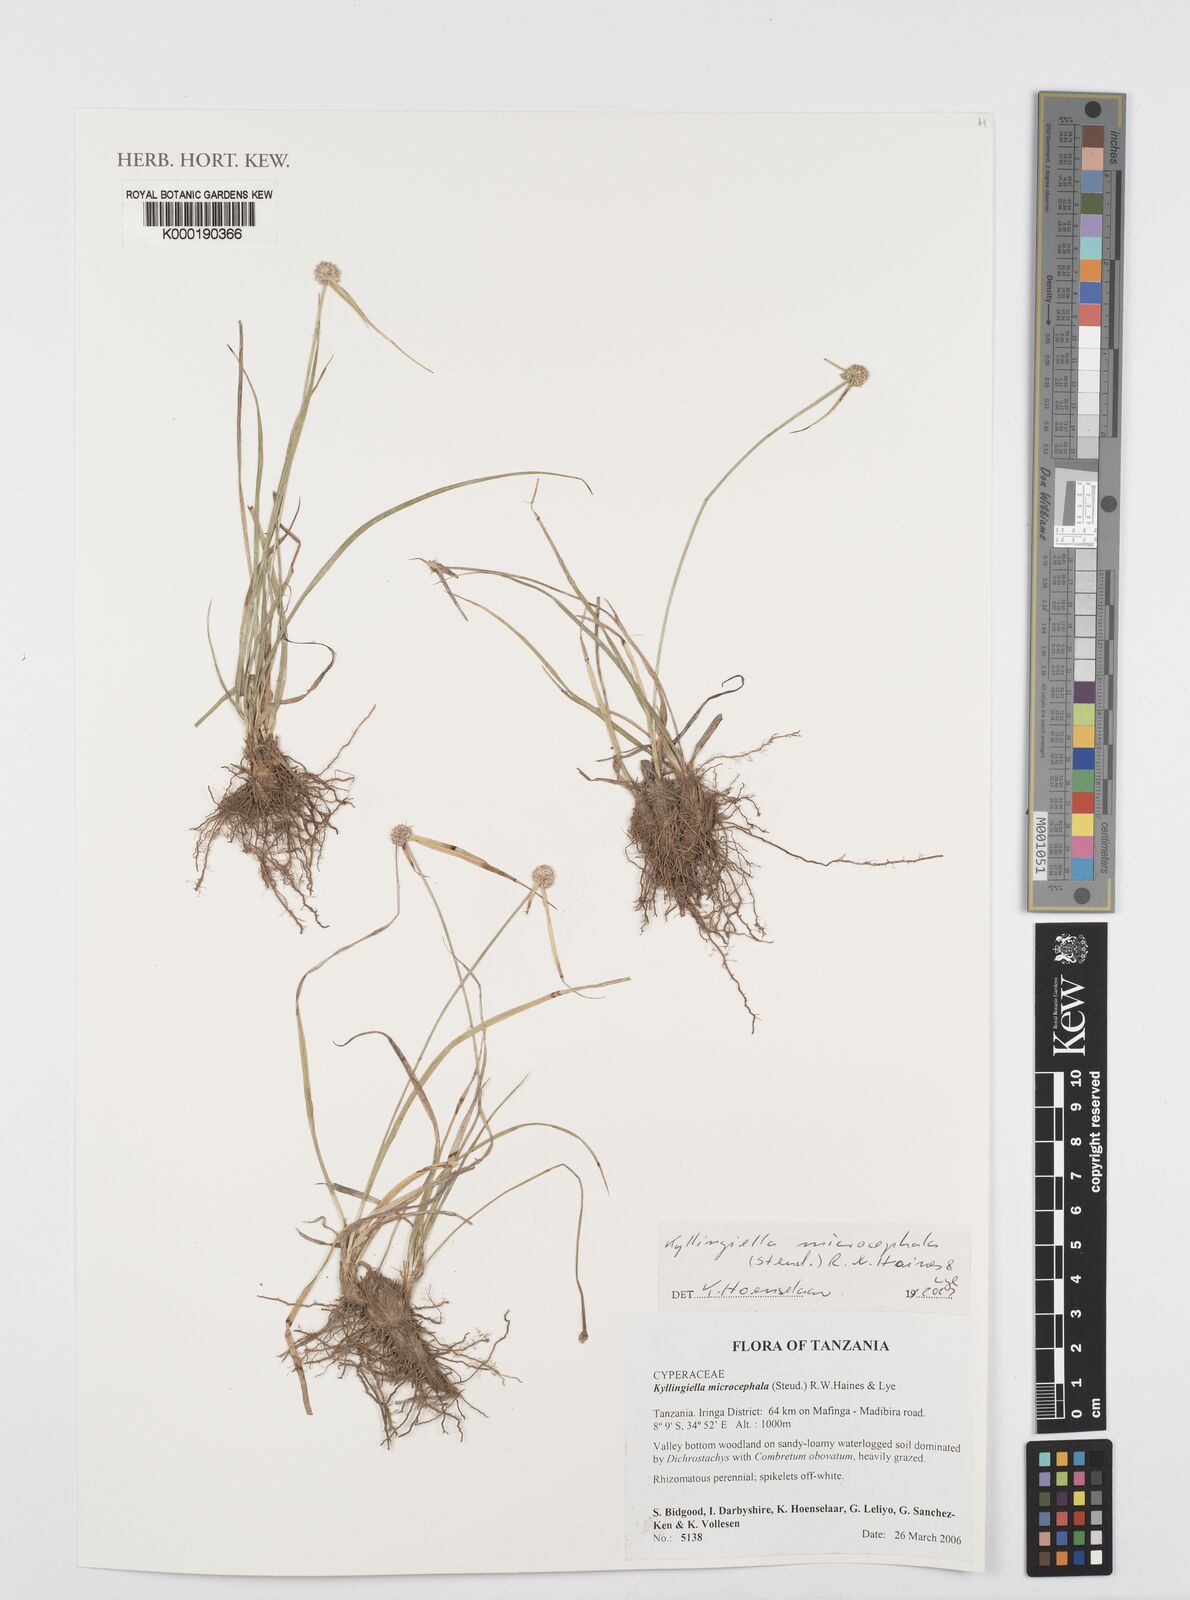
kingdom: Plantae
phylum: Tracheophyta
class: Liliopsida
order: Poales
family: Cyperaceae
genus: Cyperus
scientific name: Cyperus kyllingiella
